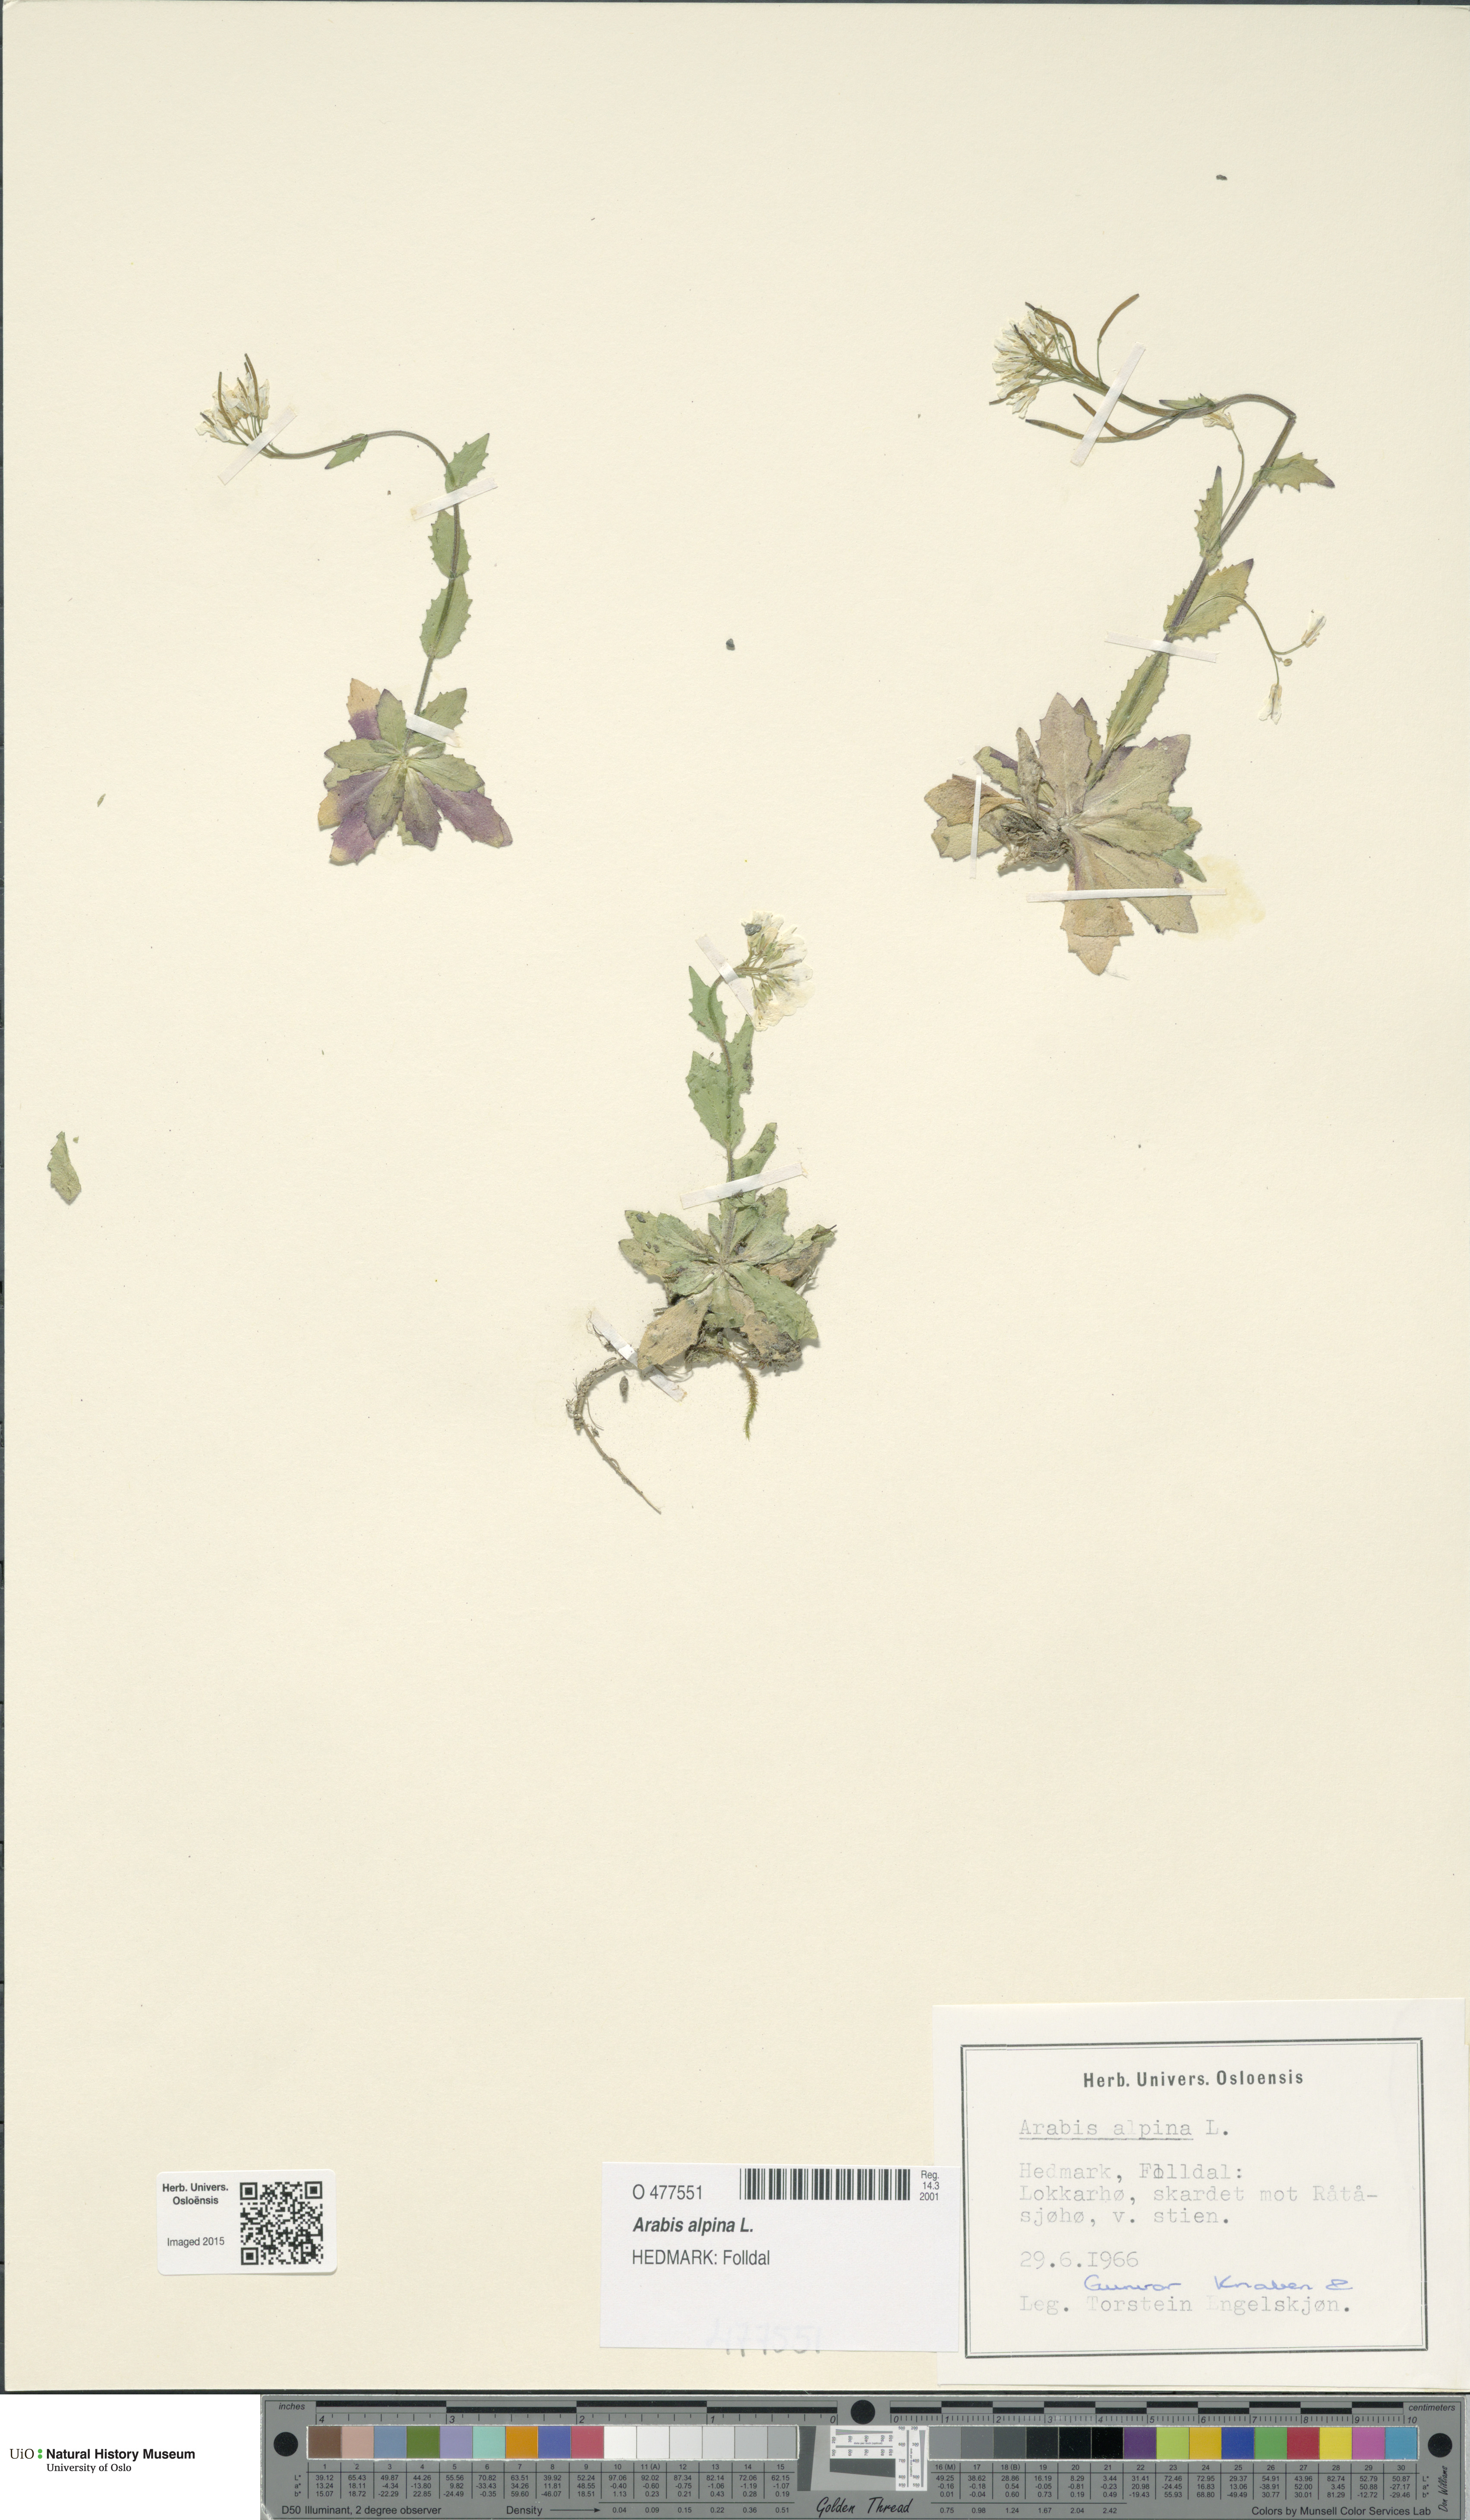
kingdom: Plantae
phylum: Tracheophyta
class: Magnoliopsida
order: Brassicales
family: Brassicaceae
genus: Arabis
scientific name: Arabis alpina
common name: Alpine rock-cress
